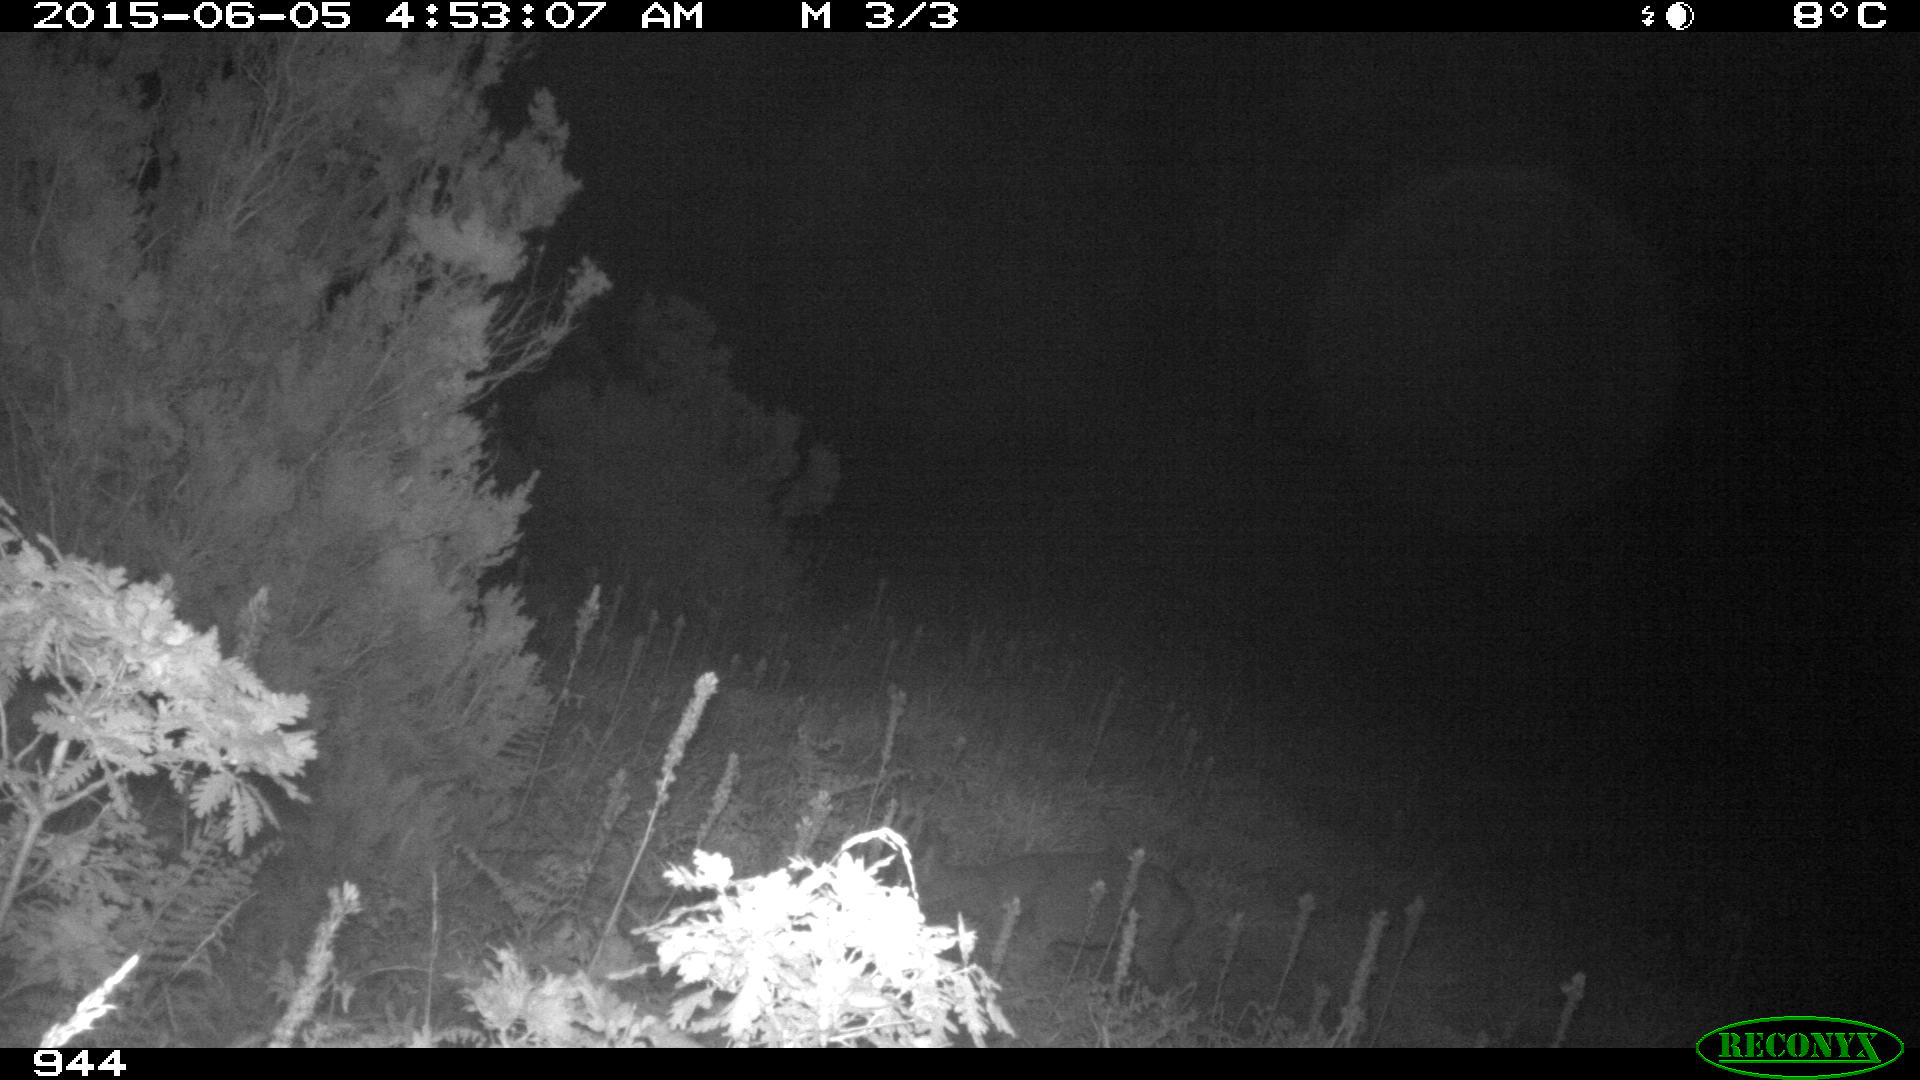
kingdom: Animalia
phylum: Chordata
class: Mammalia
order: Artiodactyla
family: Cervidae
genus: Capreolus
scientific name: Capreolus capreolus
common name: Western roe deer
